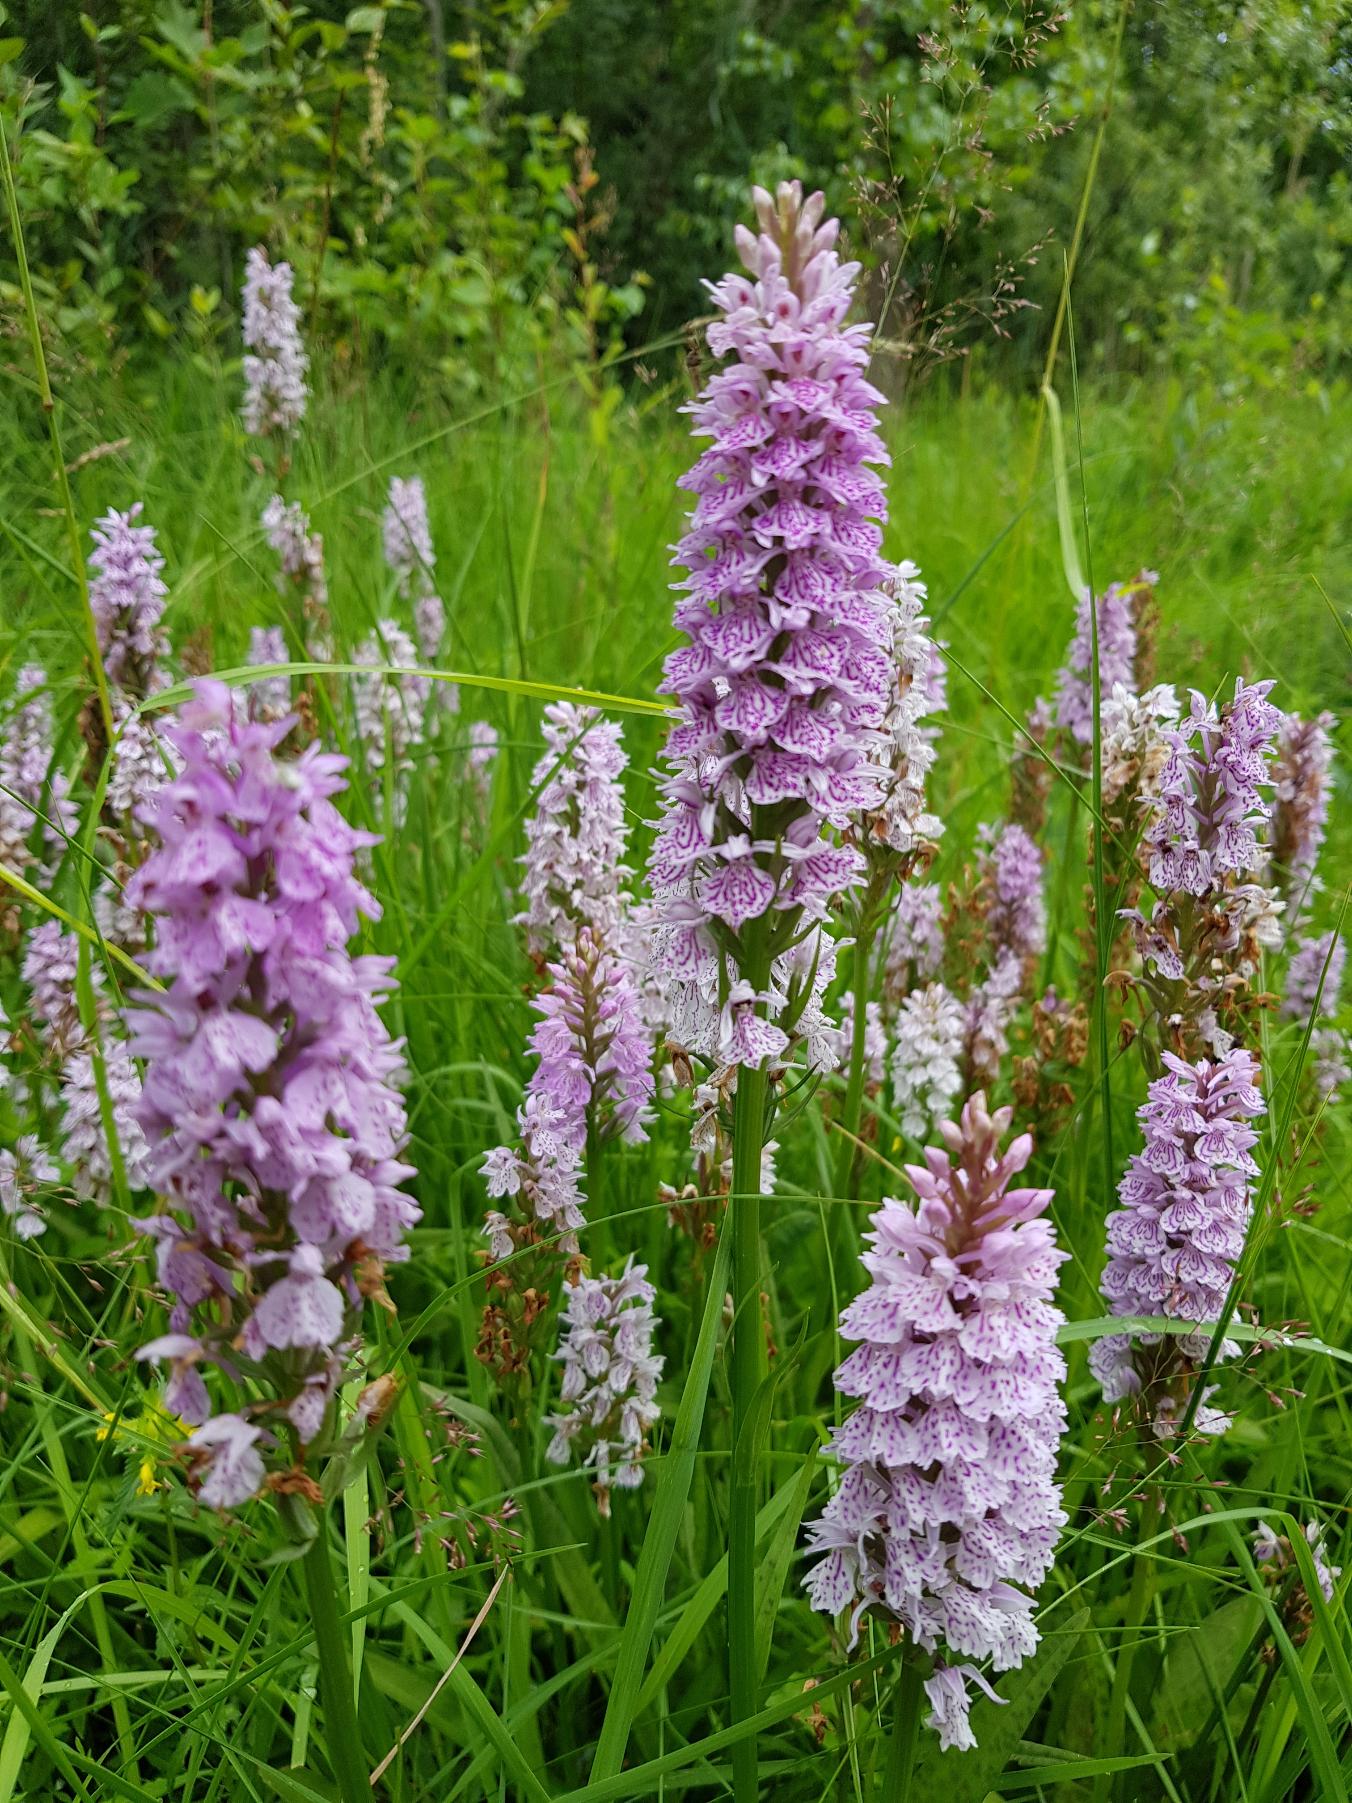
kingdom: Plantae
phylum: Tracheophyta
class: Liliopsida
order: Asparagales
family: Orchidaceae
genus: Dactylorhiza
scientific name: Dactylorhiza maculata
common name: Plettet gøgeurt
